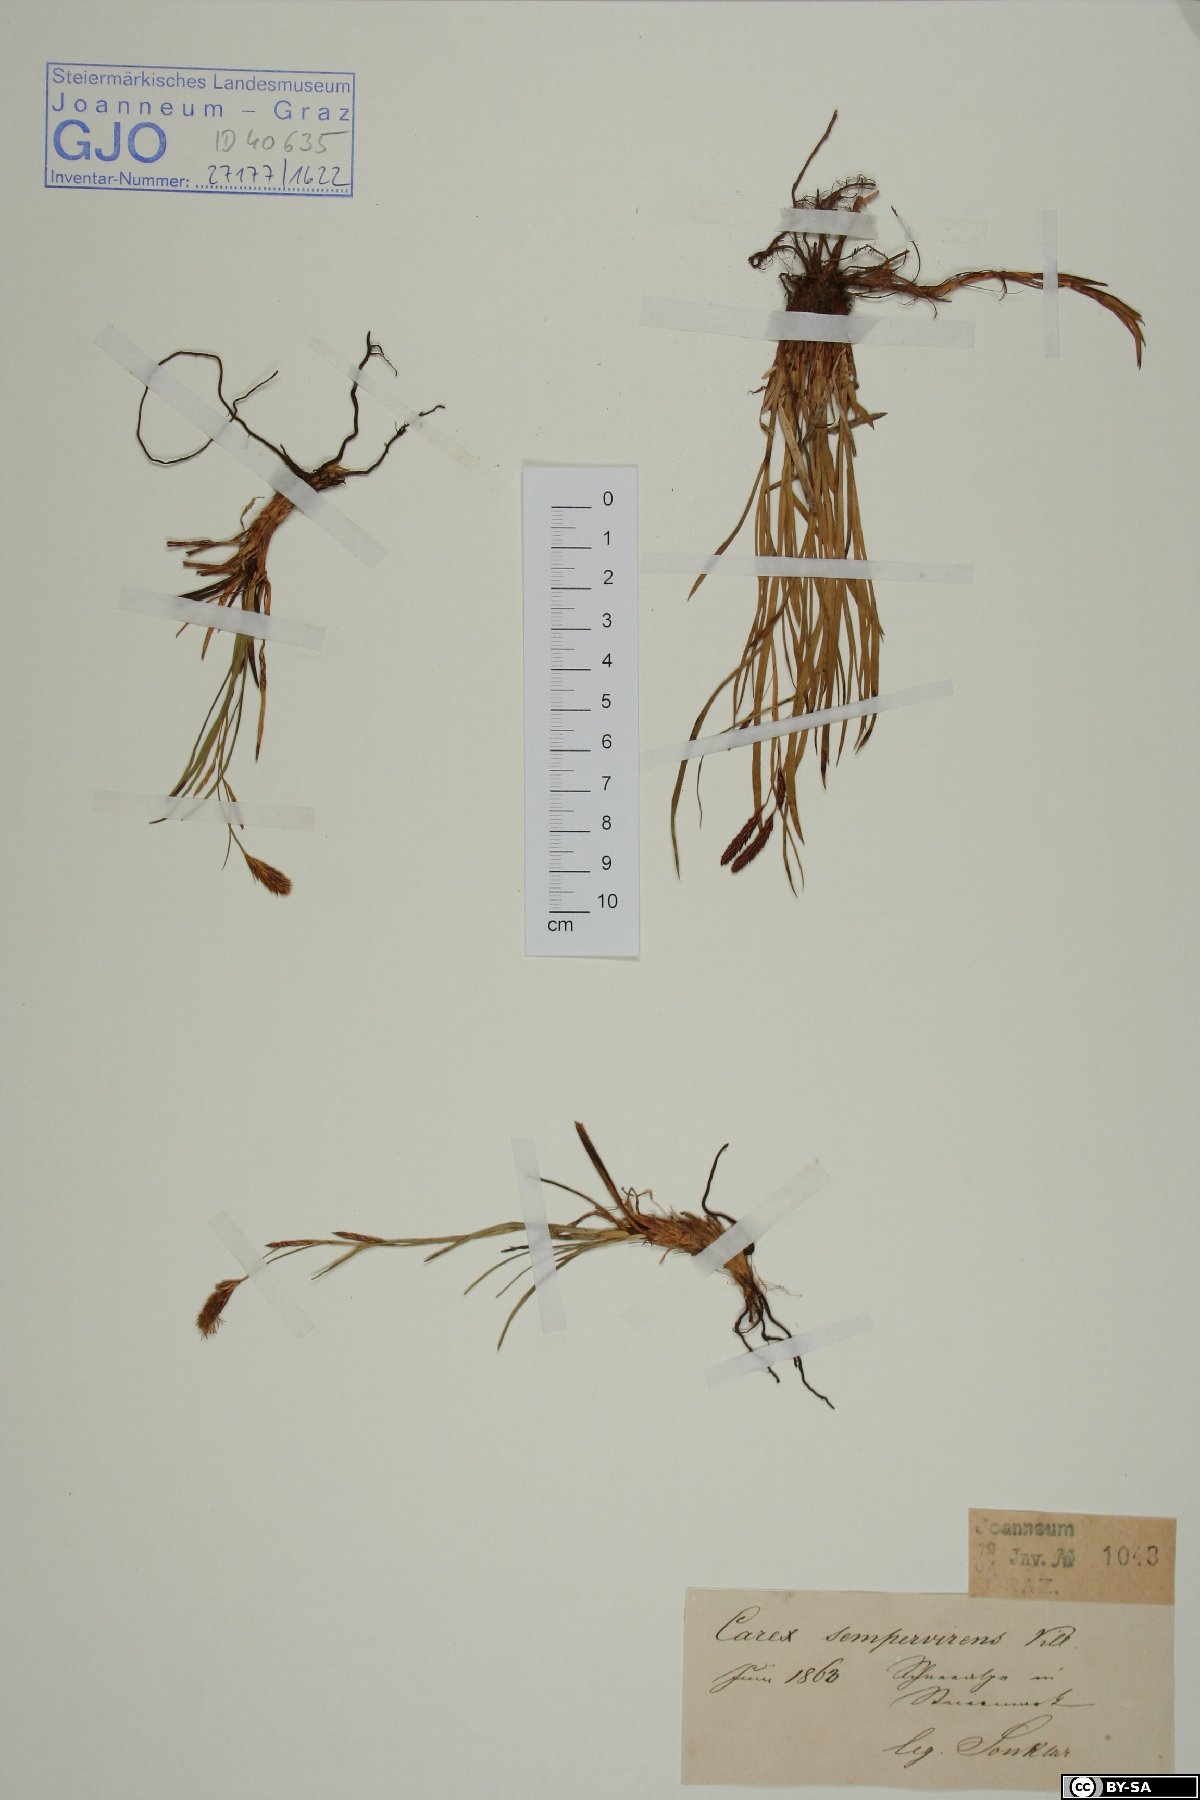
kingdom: Plantae
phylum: Tracheophyta
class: Liliopsida
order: Poales
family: Cyperaceae
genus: Carex
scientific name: Carex sempervirens
